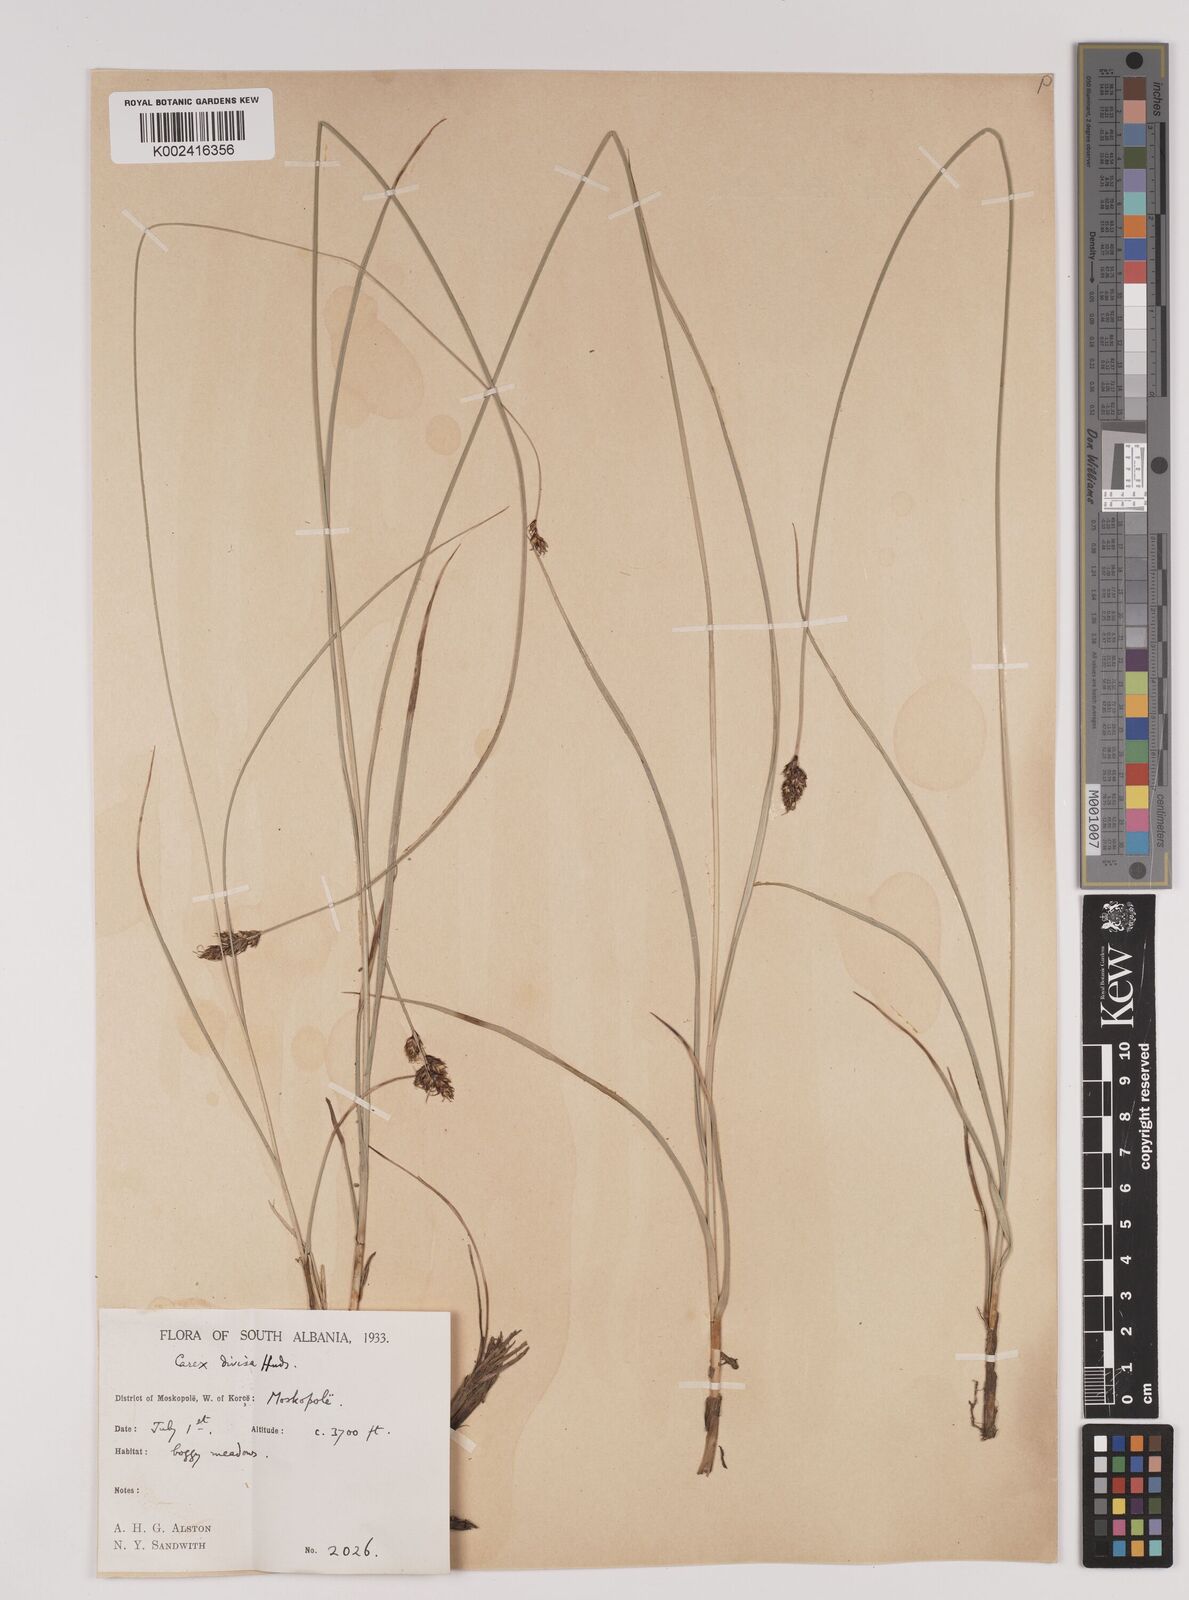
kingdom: Plantae
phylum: Tracheophyta
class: Liliopsida
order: Poales
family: Cyperaceae
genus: Carex
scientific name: Carex divisa
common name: Divided sedge
